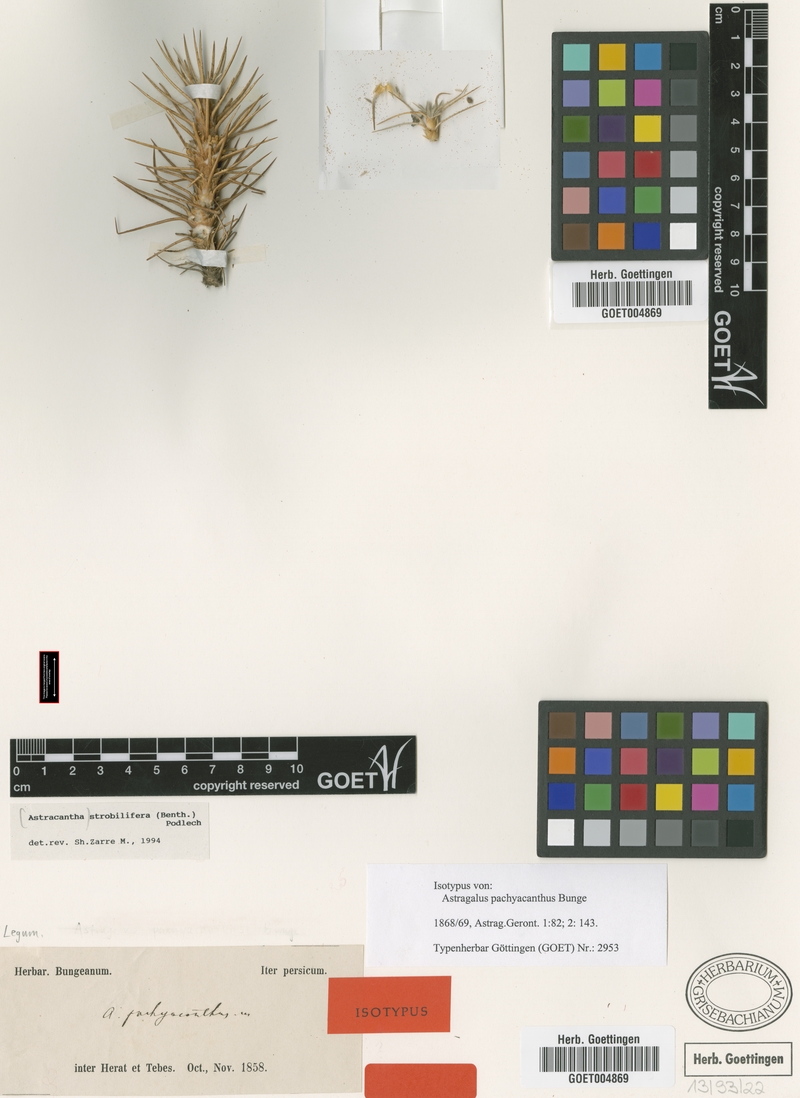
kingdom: Plantae
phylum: Tracheophyta
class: Magnoliopsida
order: Fabales
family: Fabaceae
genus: Astragalus
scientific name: Astragalus strobiliferus
